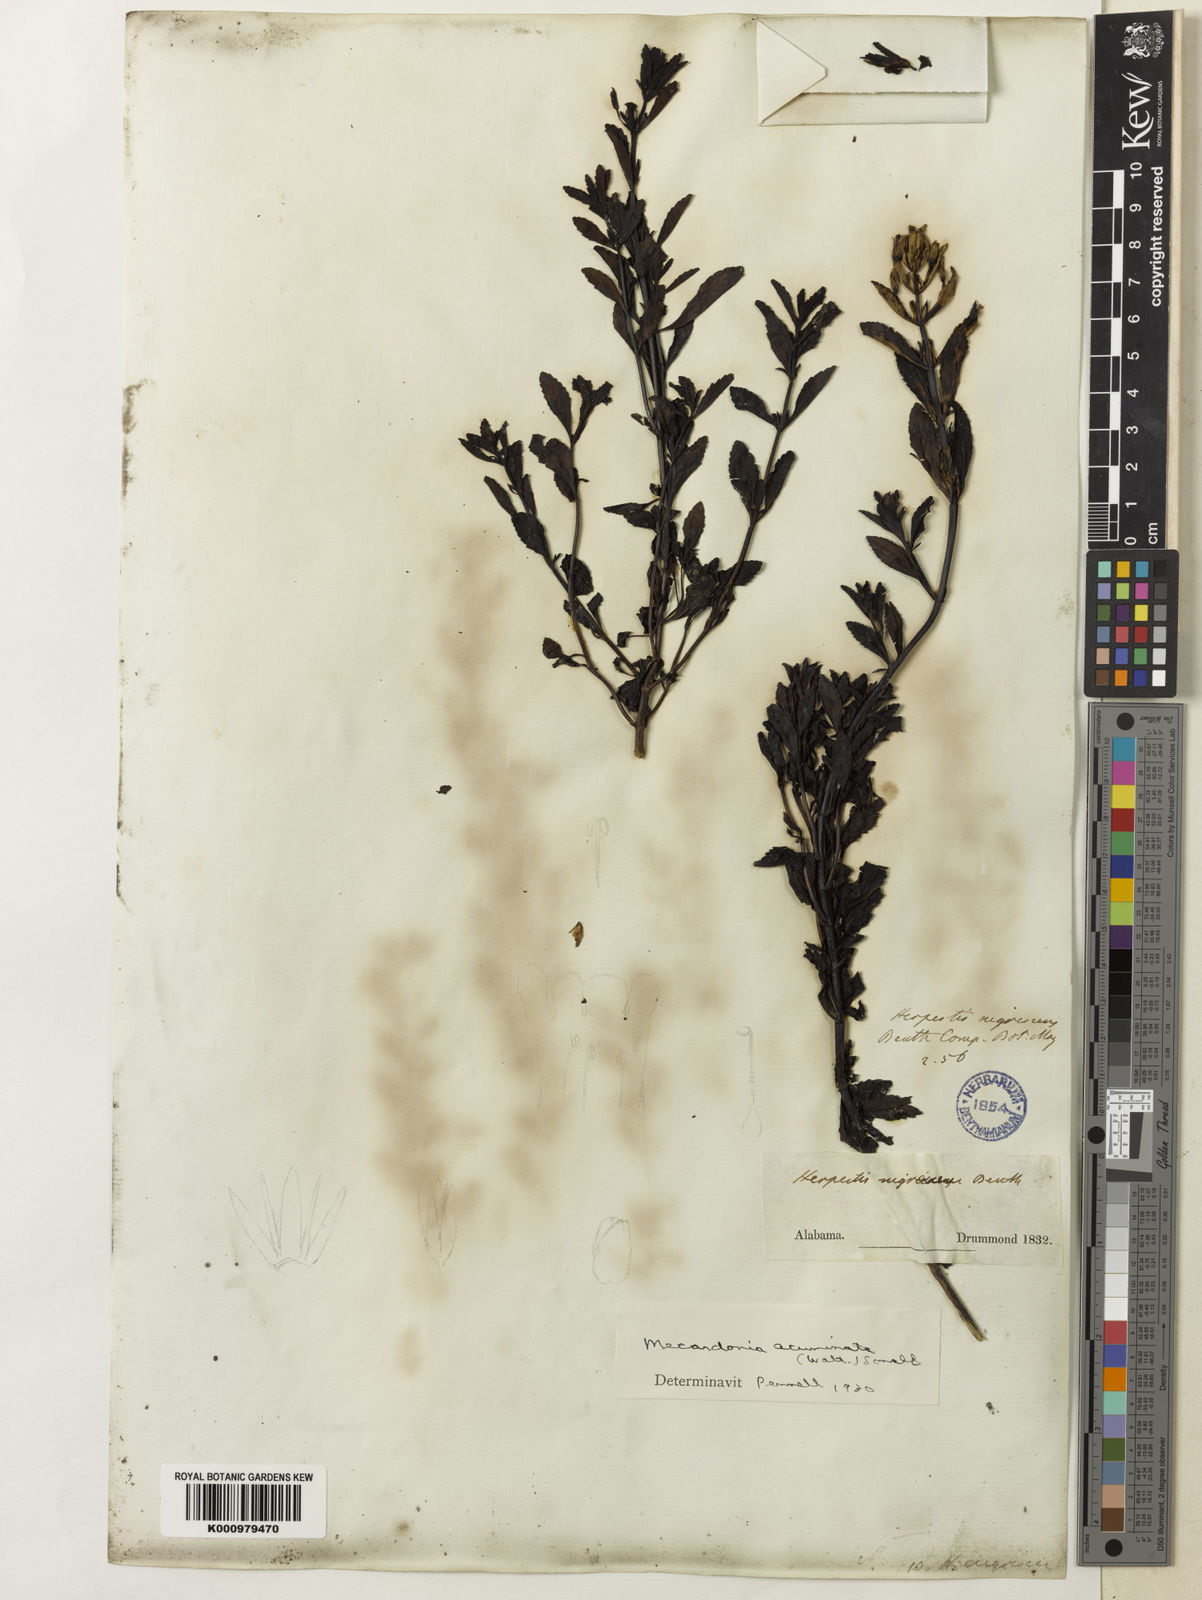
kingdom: Plantae
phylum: Tracheophyta
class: Magnoliopsida
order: Lamiales
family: Plantaginaceae
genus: Mecardonia
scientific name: Mecardonia
